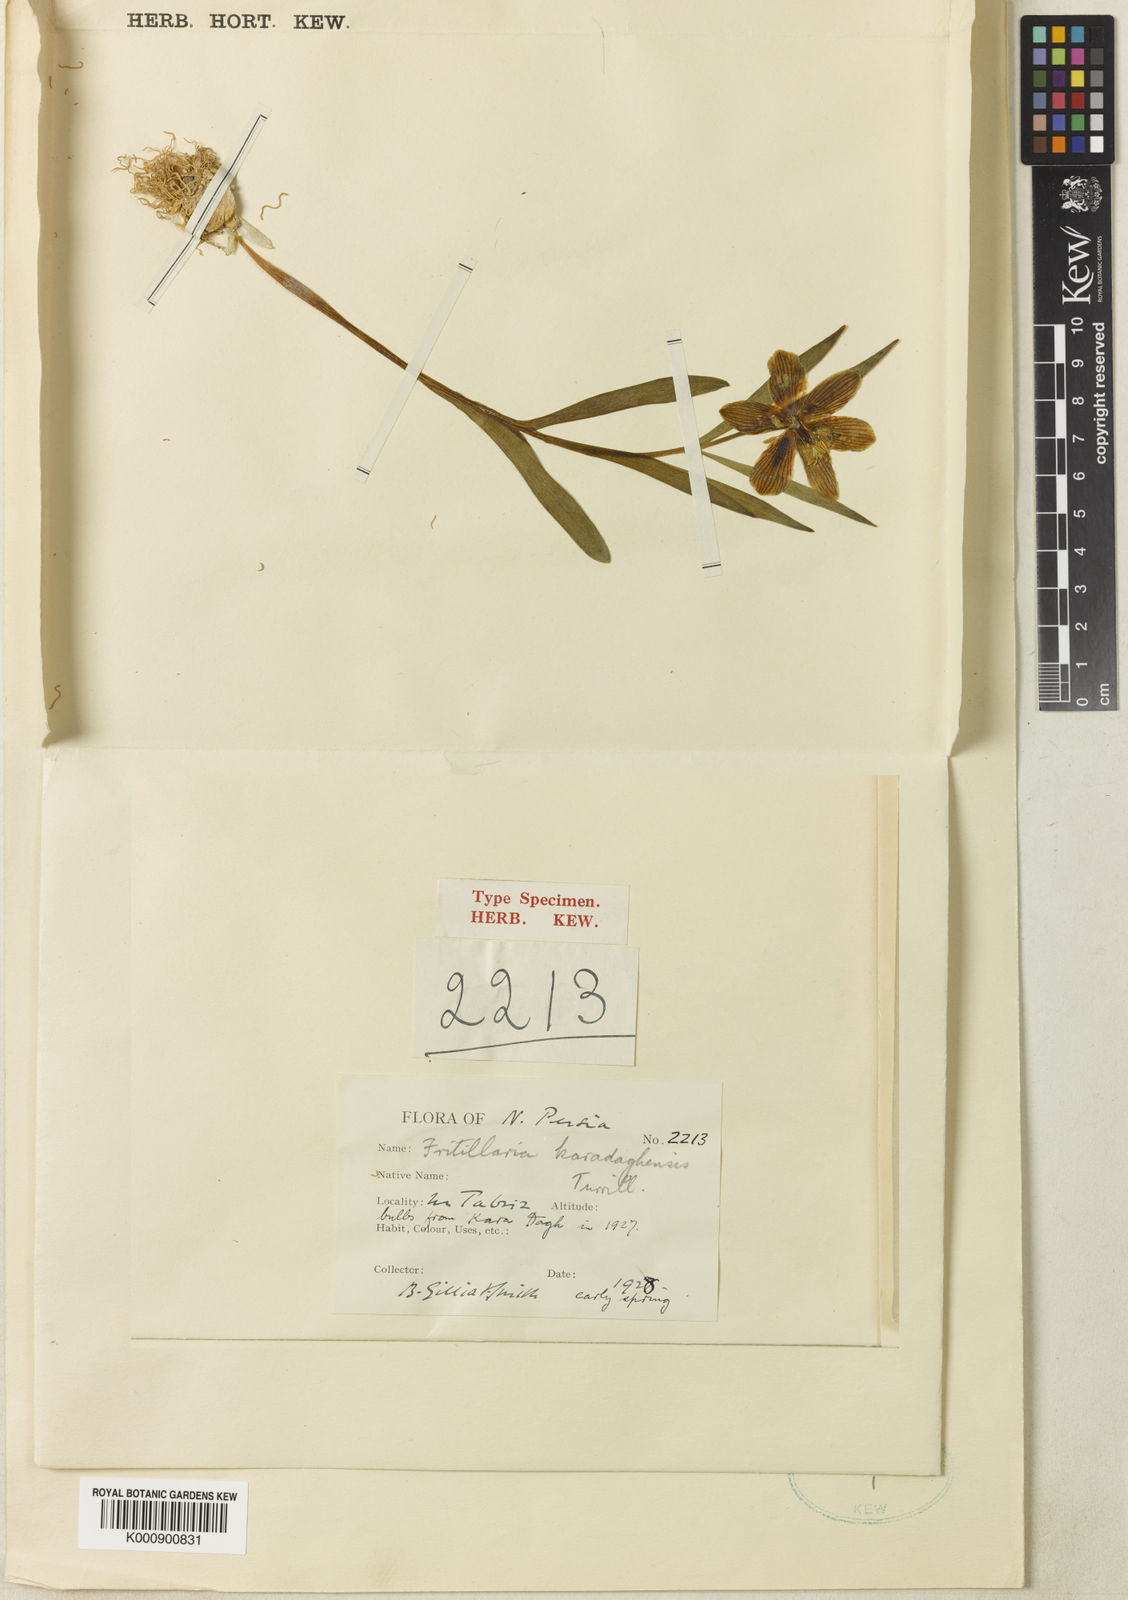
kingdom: Plantae
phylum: Tracheophyta
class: Liliopsida
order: Liliales
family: Liliaceae
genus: Fritillaria
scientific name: Fritillaria crassifolia
